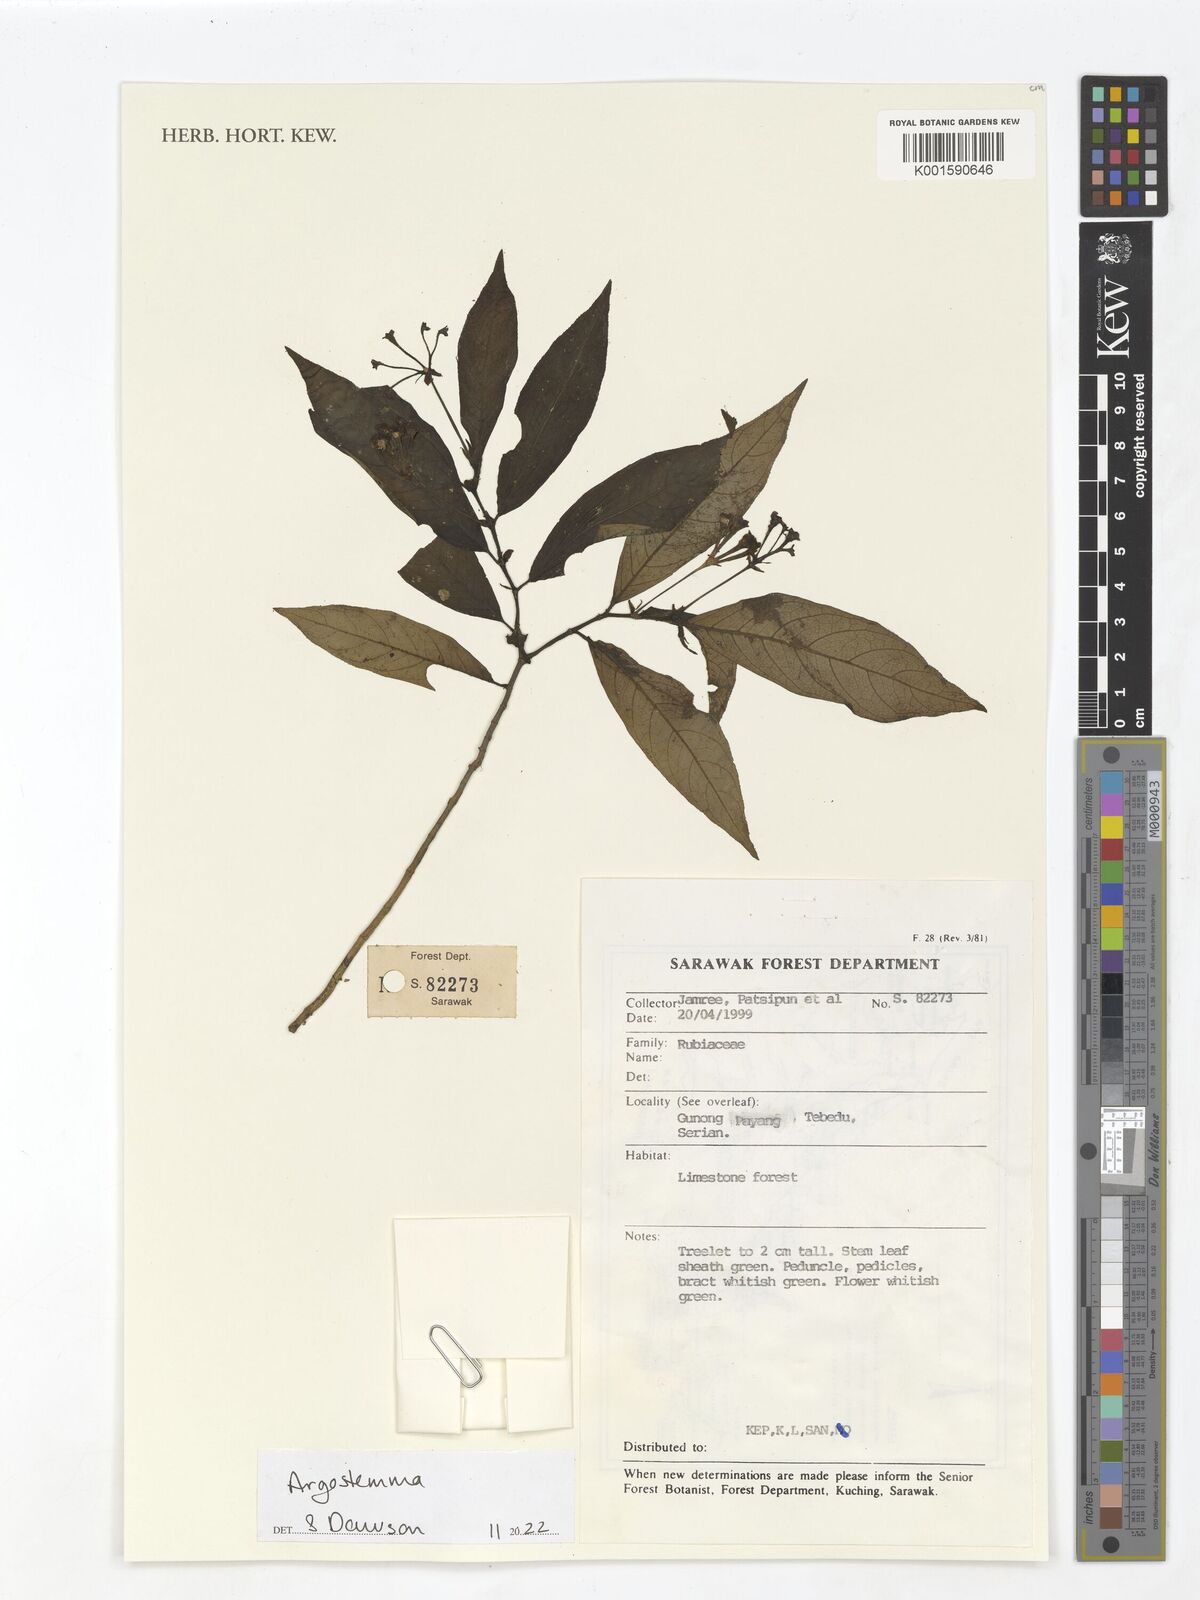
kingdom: Plantae
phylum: Tracheophyta
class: Magnoliopsida
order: Gentianales
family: Rubiaceae
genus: Argostemma
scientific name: Argostemma
